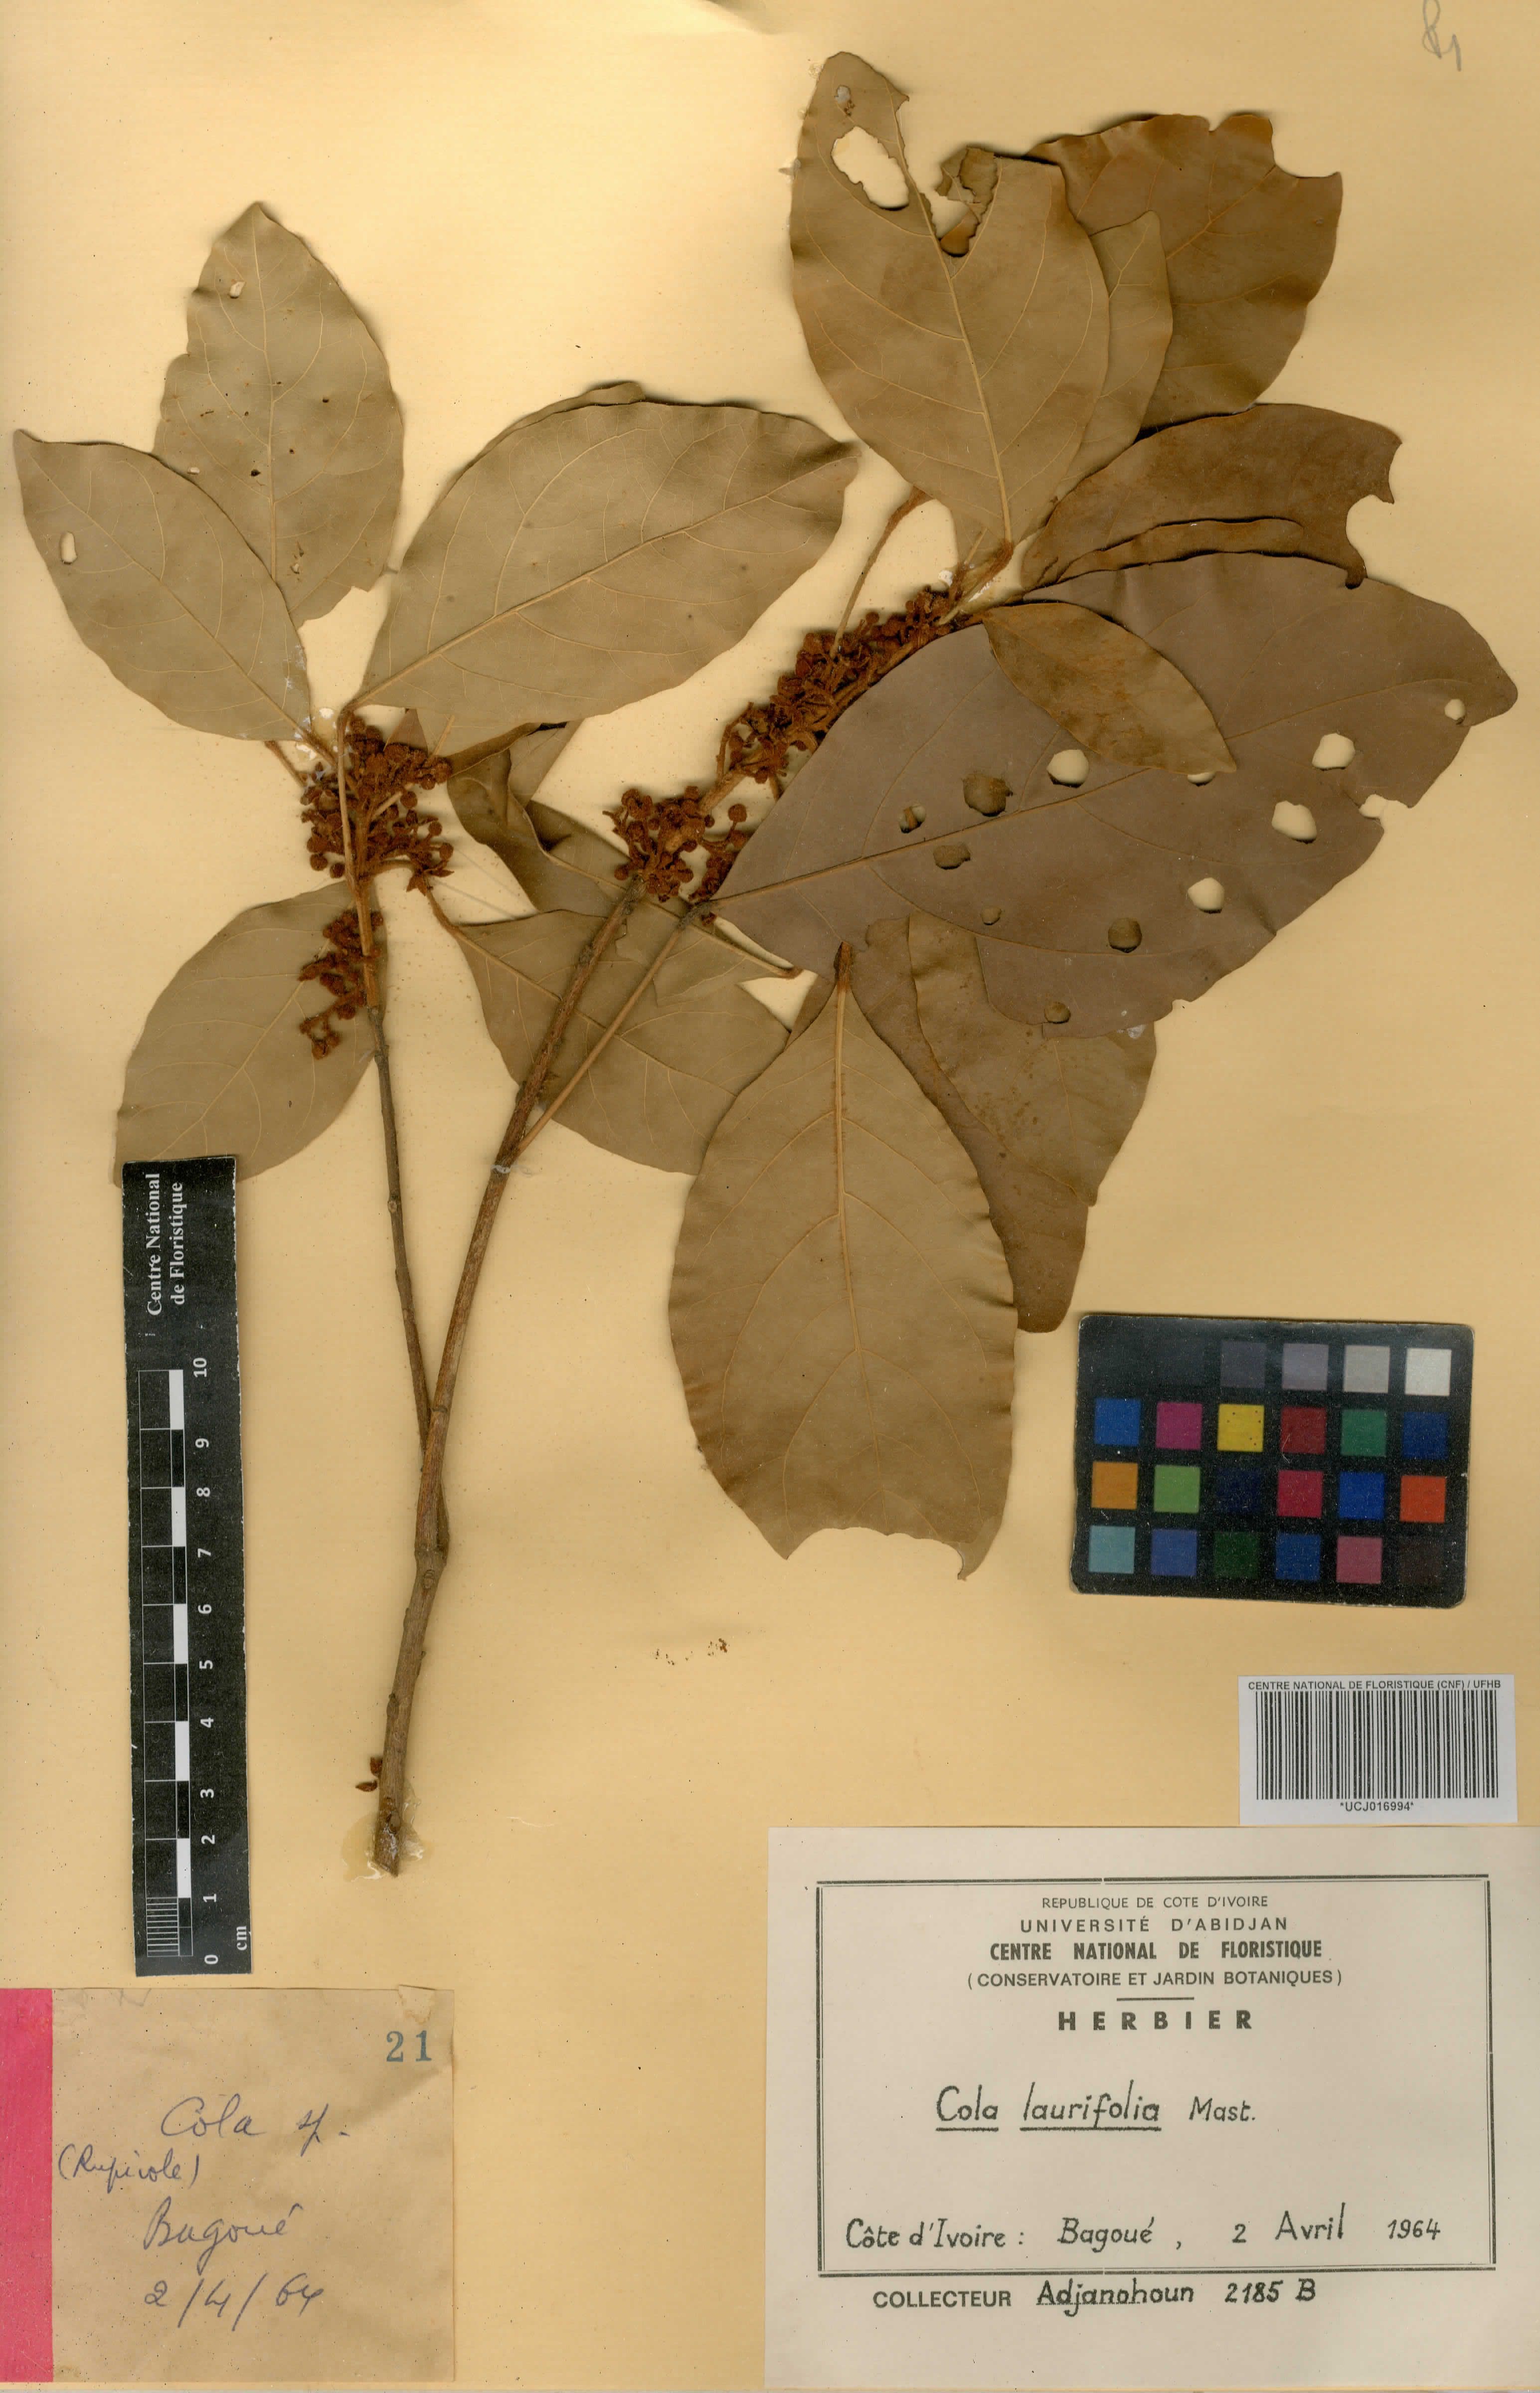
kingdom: Plantae
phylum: Tracheophyta
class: Magnoliopsida
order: Malvales
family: Malvaceae
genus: Cola
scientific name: Cola laurifolia
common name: Laurel-leaved kola
